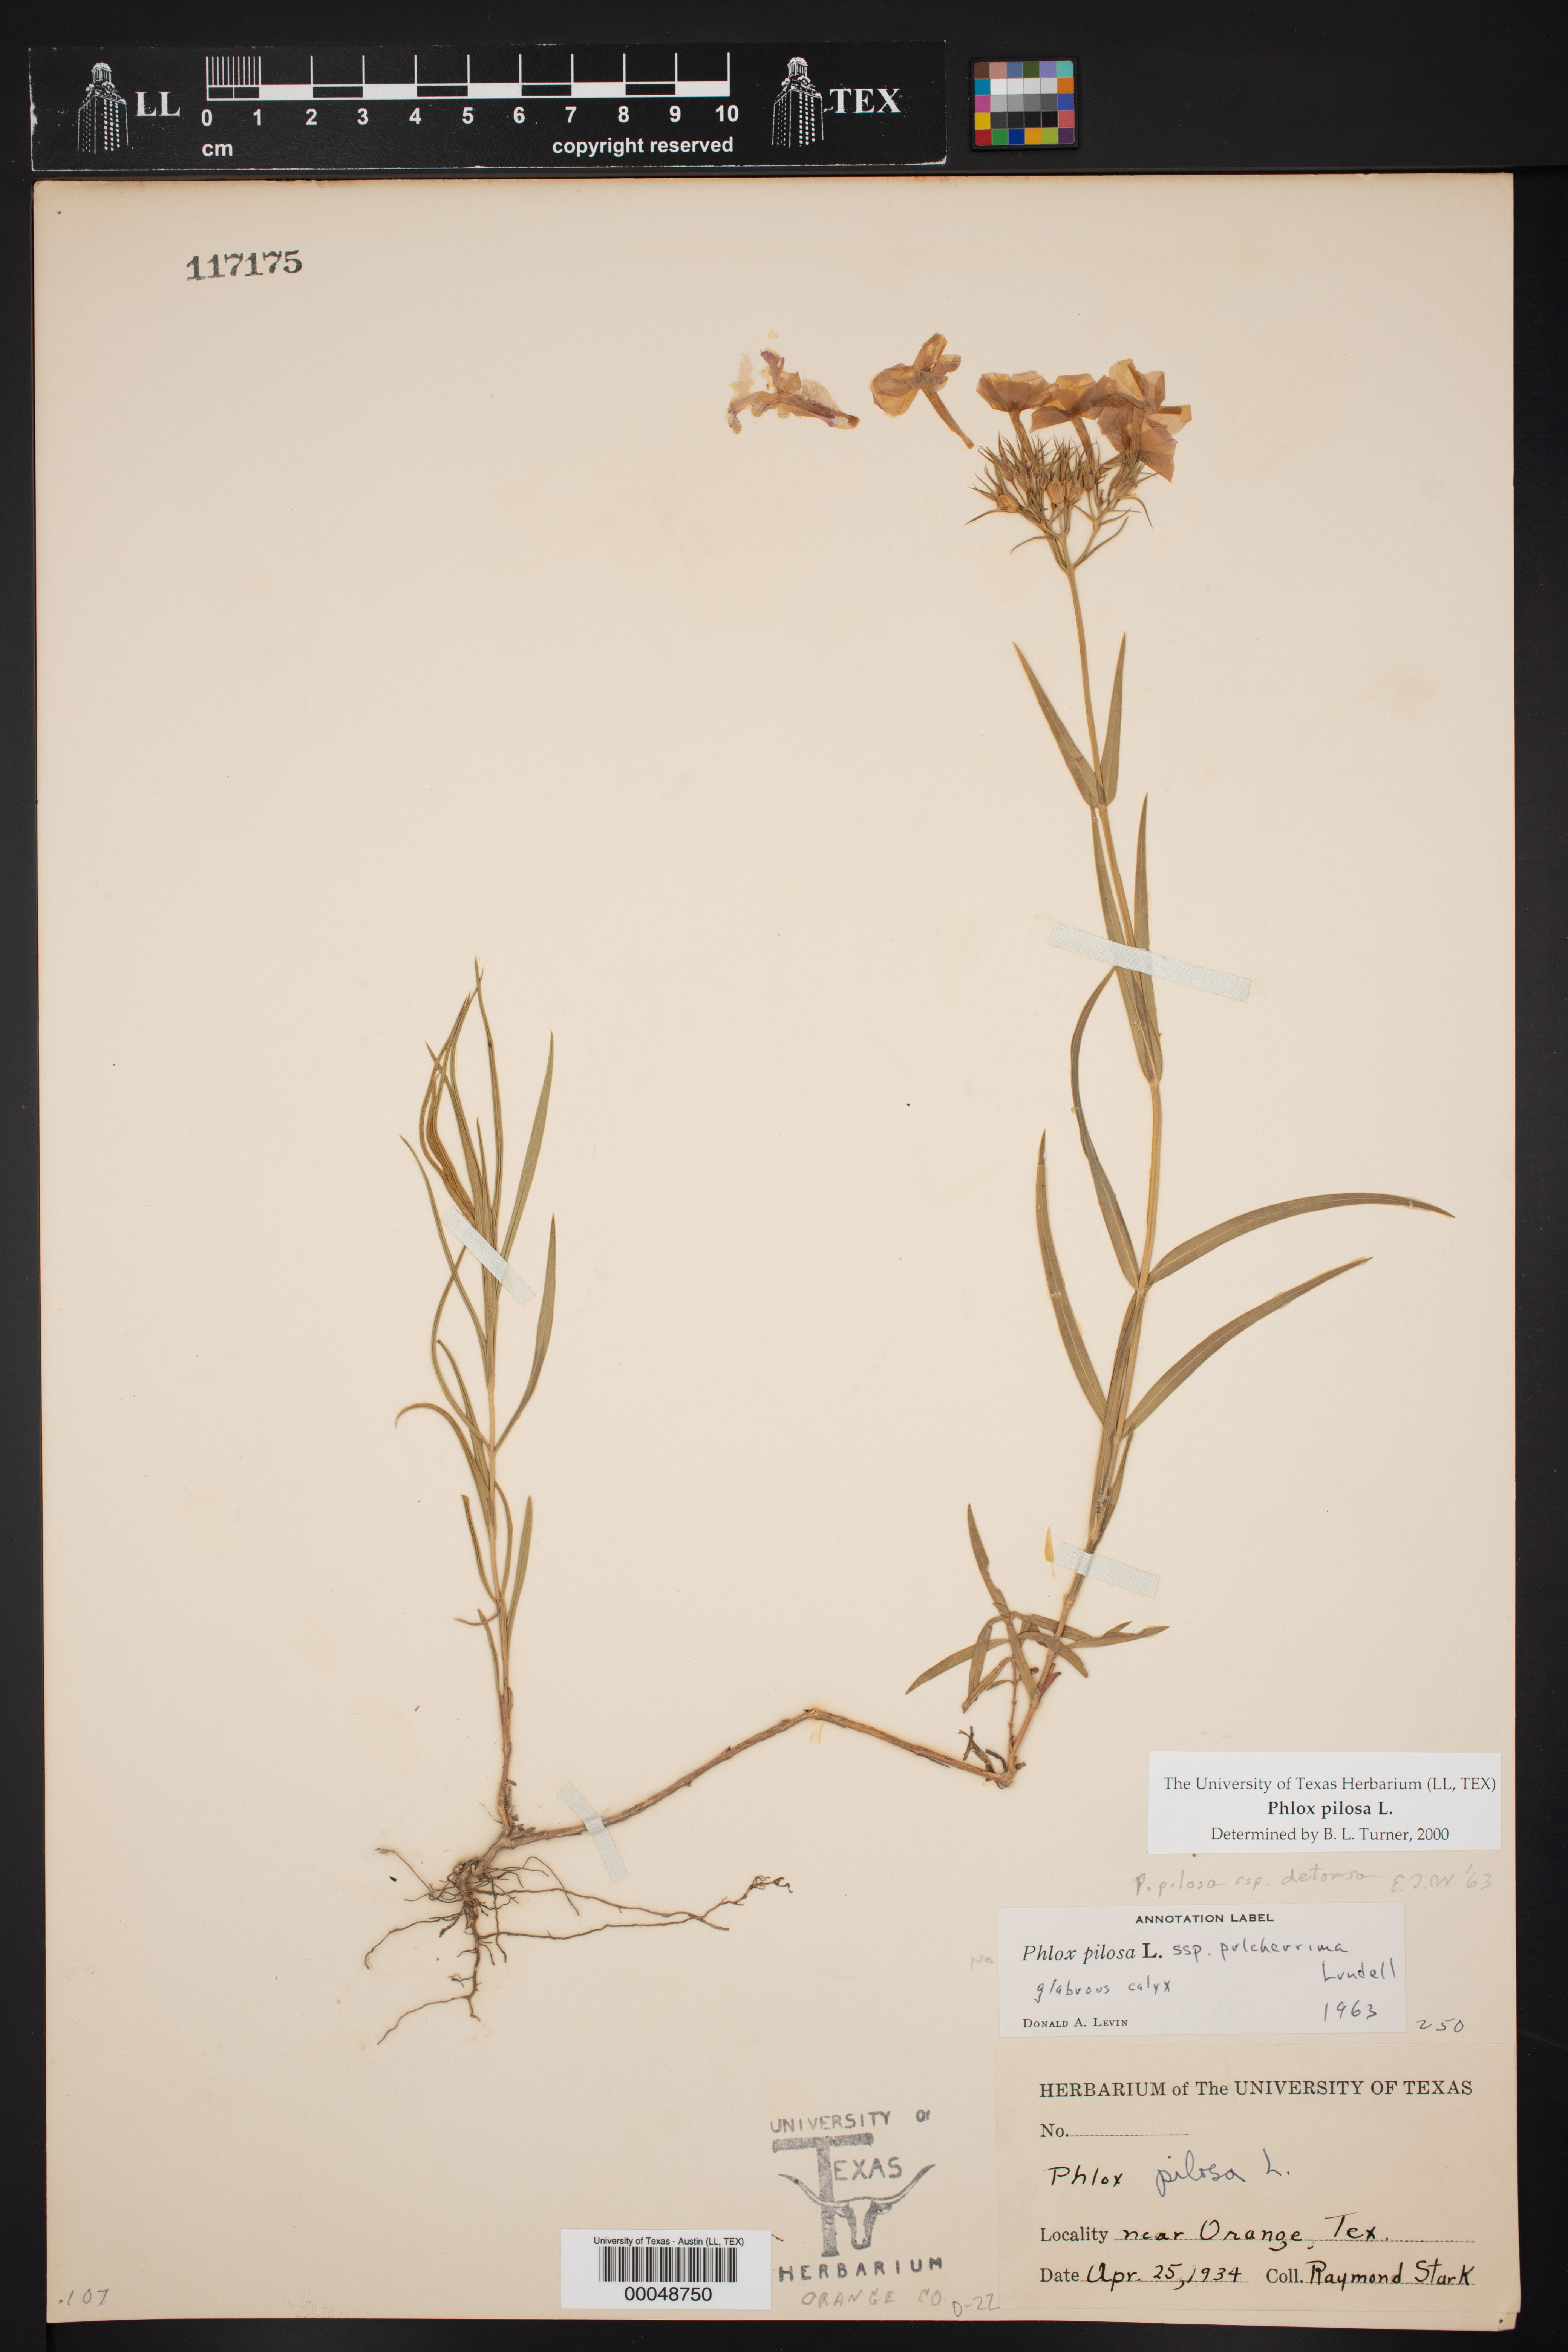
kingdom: Plantae
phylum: Tracheophyta
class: Magnoliopsida
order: Ericales
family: Polemoniaceae
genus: Phlox
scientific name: Phlox pilosa
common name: Prairie phlox
